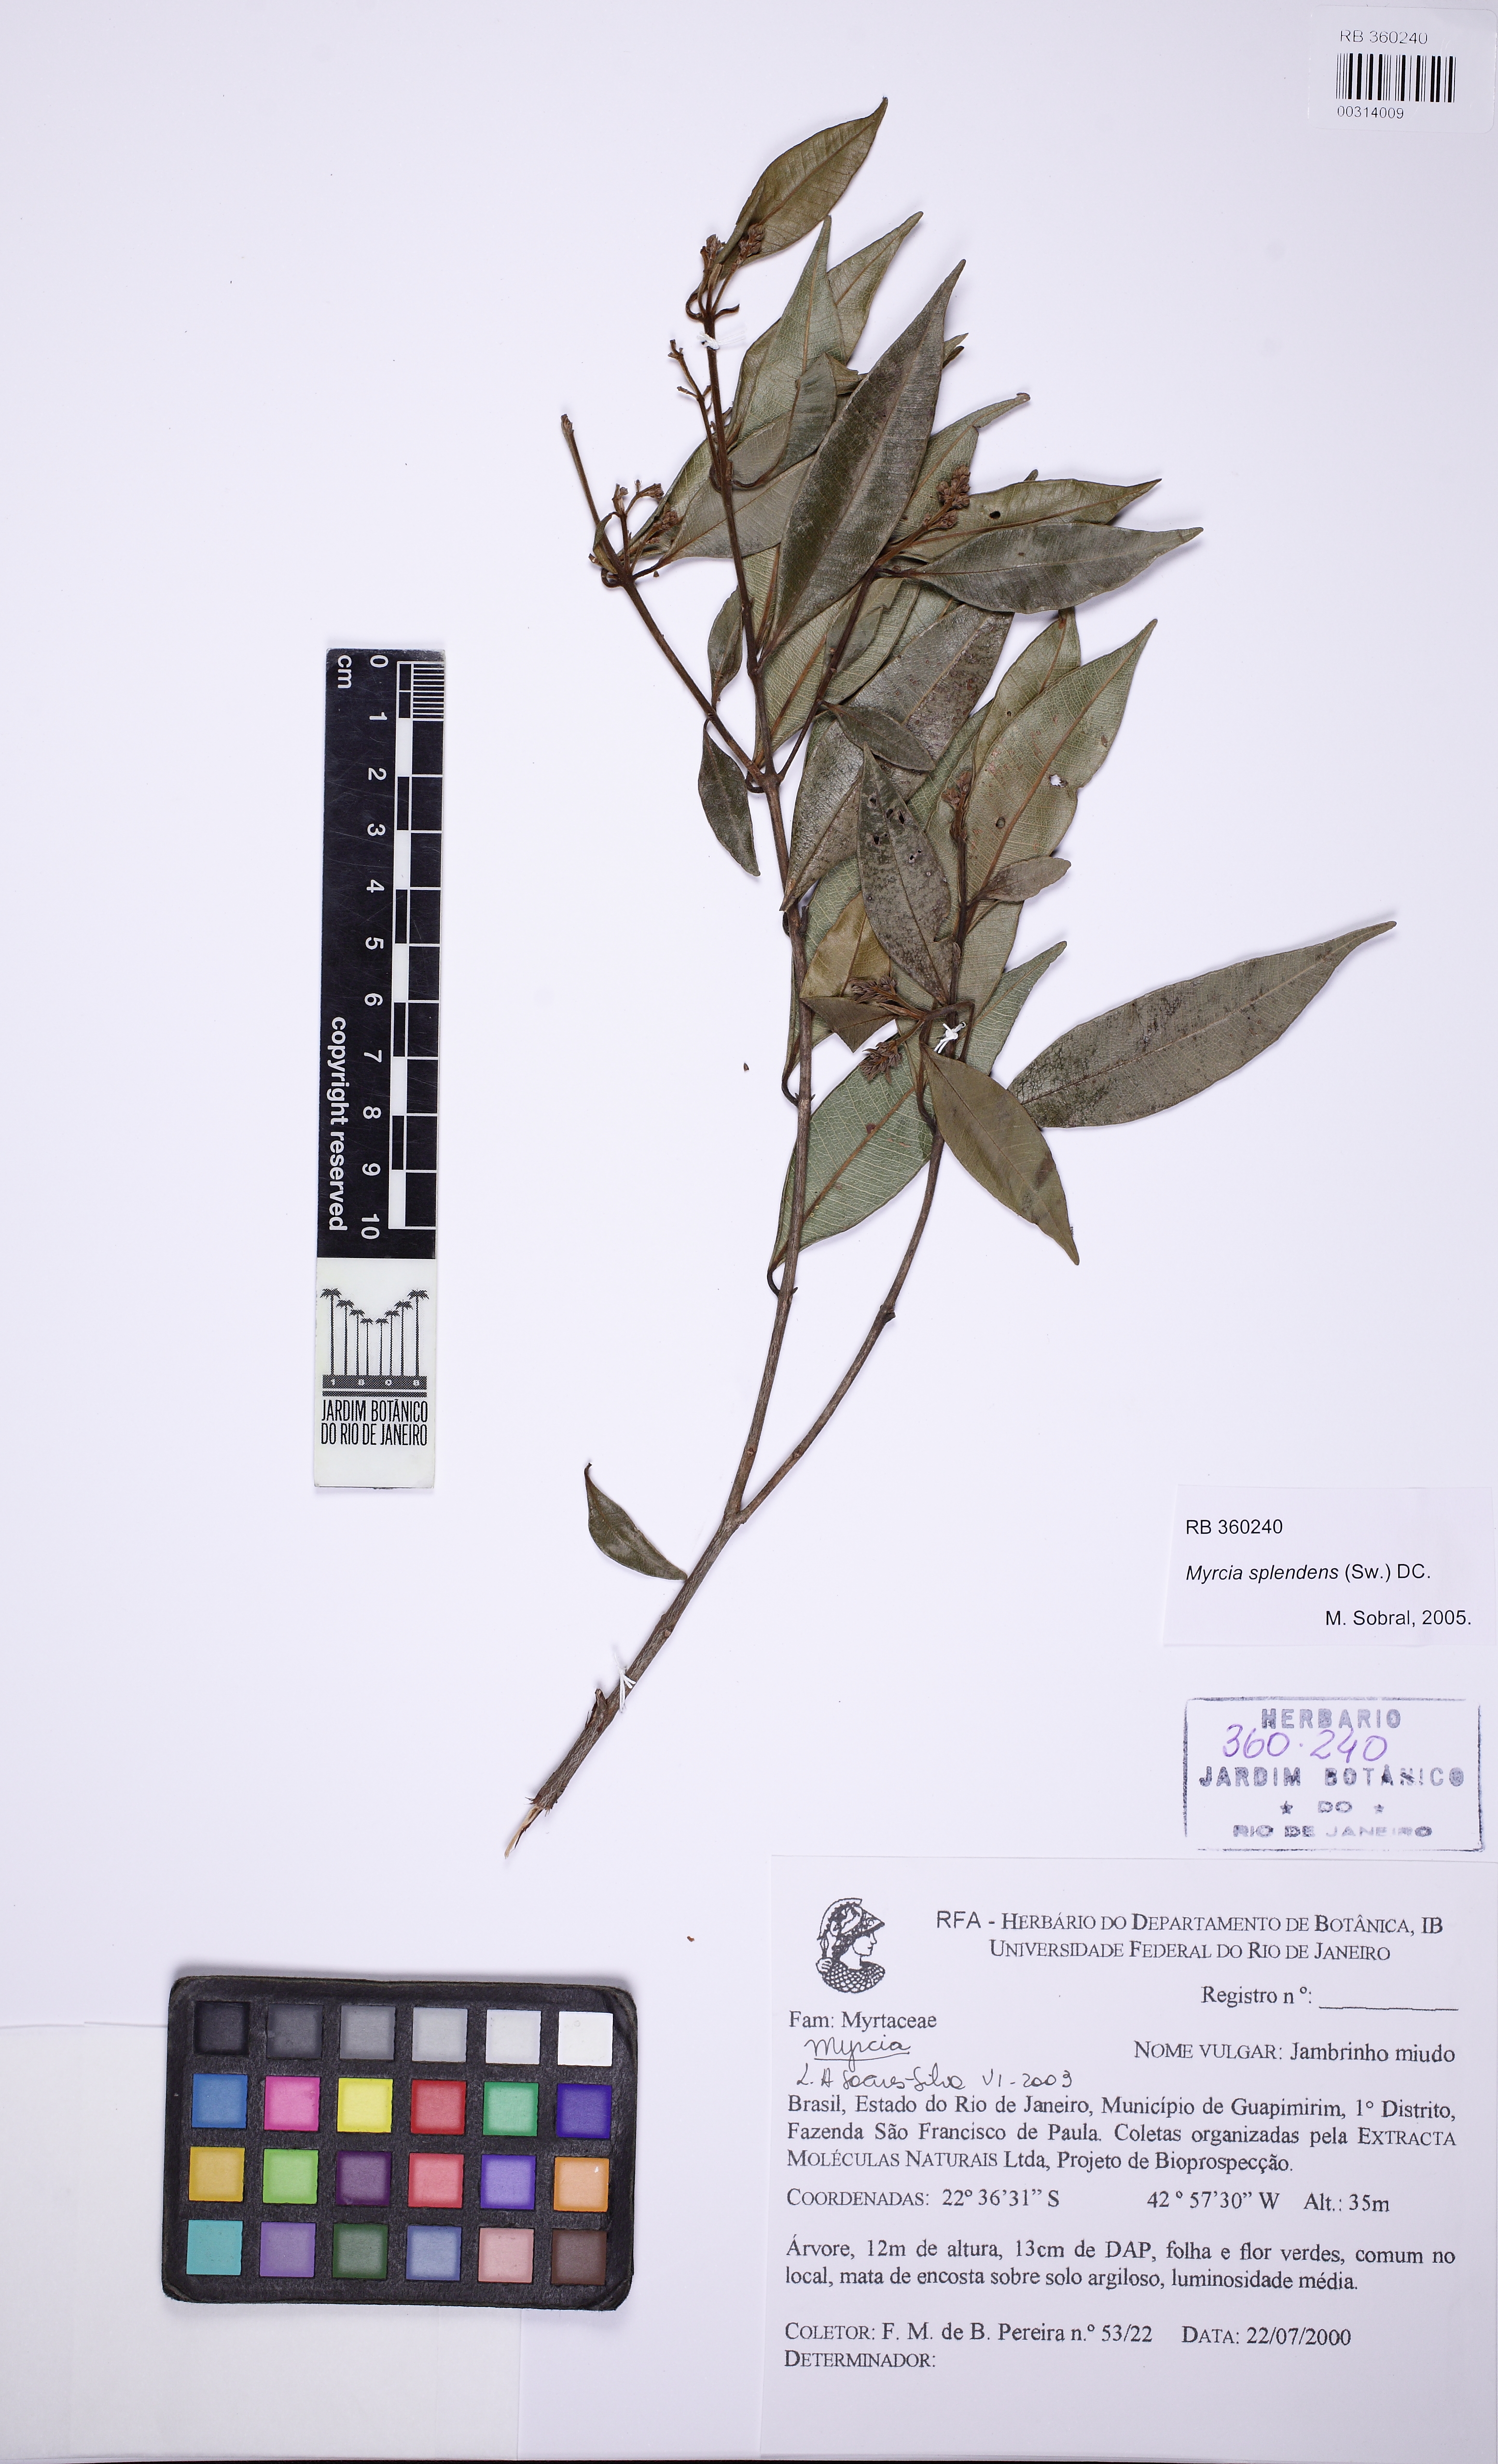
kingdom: Plantae
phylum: Tracheophyta
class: Magnoliopsida
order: Myrtales
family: Myrtaceae
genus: Myrcia
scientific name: Myrcia splendens
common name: Surinam cherry
